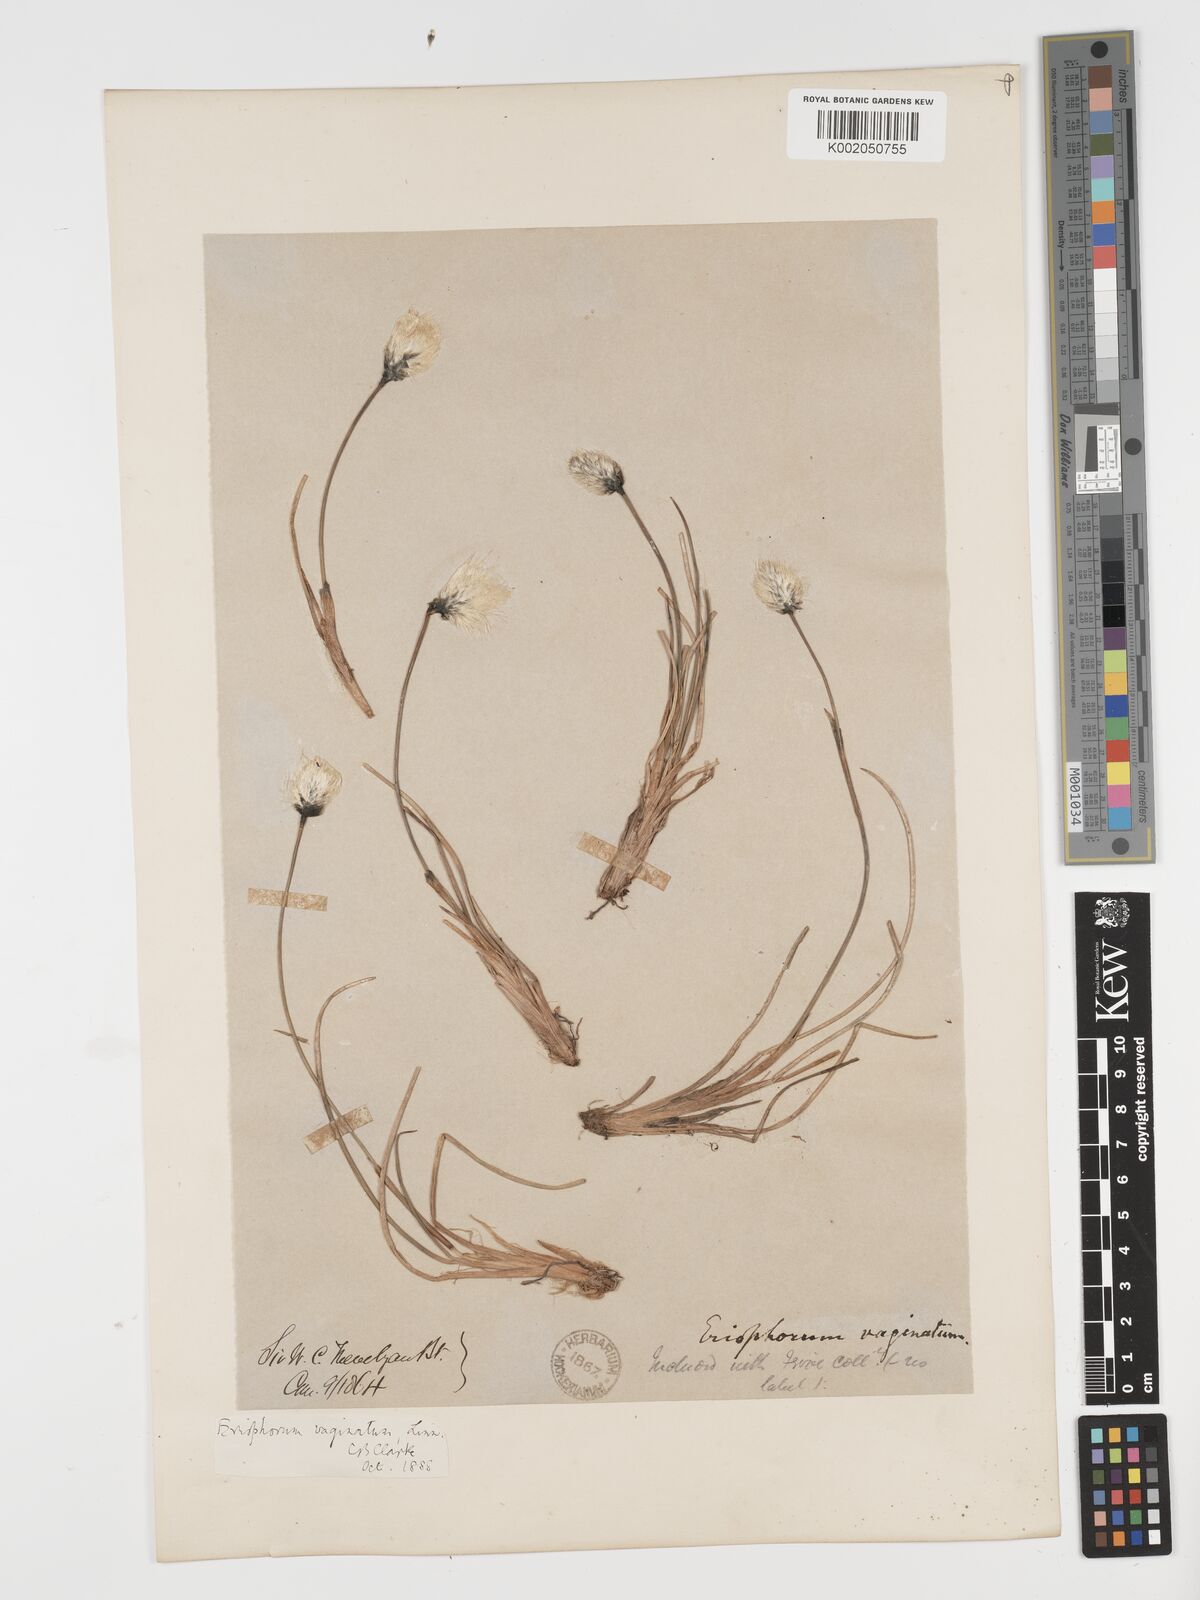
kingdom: Plantae
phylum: Tracheophyta
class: Liliopsida
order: Poales
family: Cyperaceae
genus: Eriophorum
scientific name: Eriophorum vaginatum
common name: Hare's-tail cottongrass
